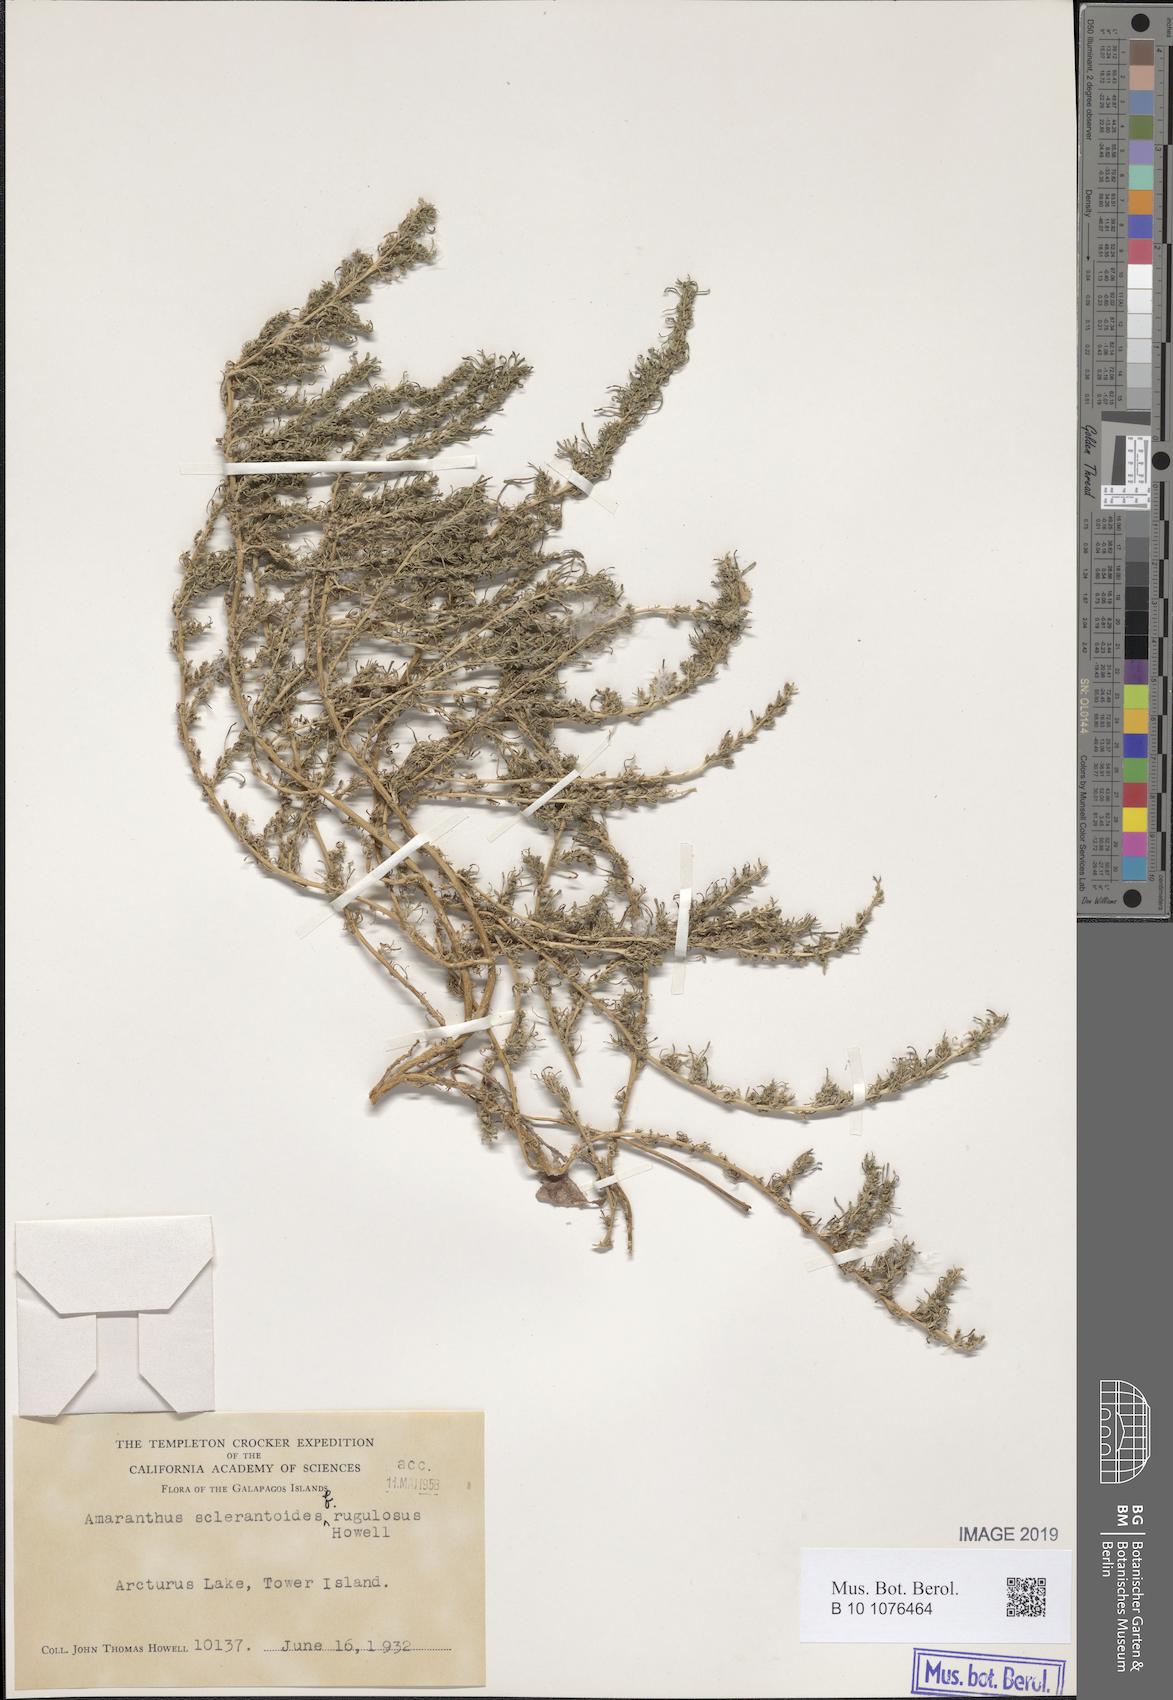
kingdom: Plantae
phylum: Tracheophyta
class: Magnoliopsida
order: Caryophyllales
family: Amaranthaceae
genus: Amaranthus
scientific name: Amaranthus sclerantoides
